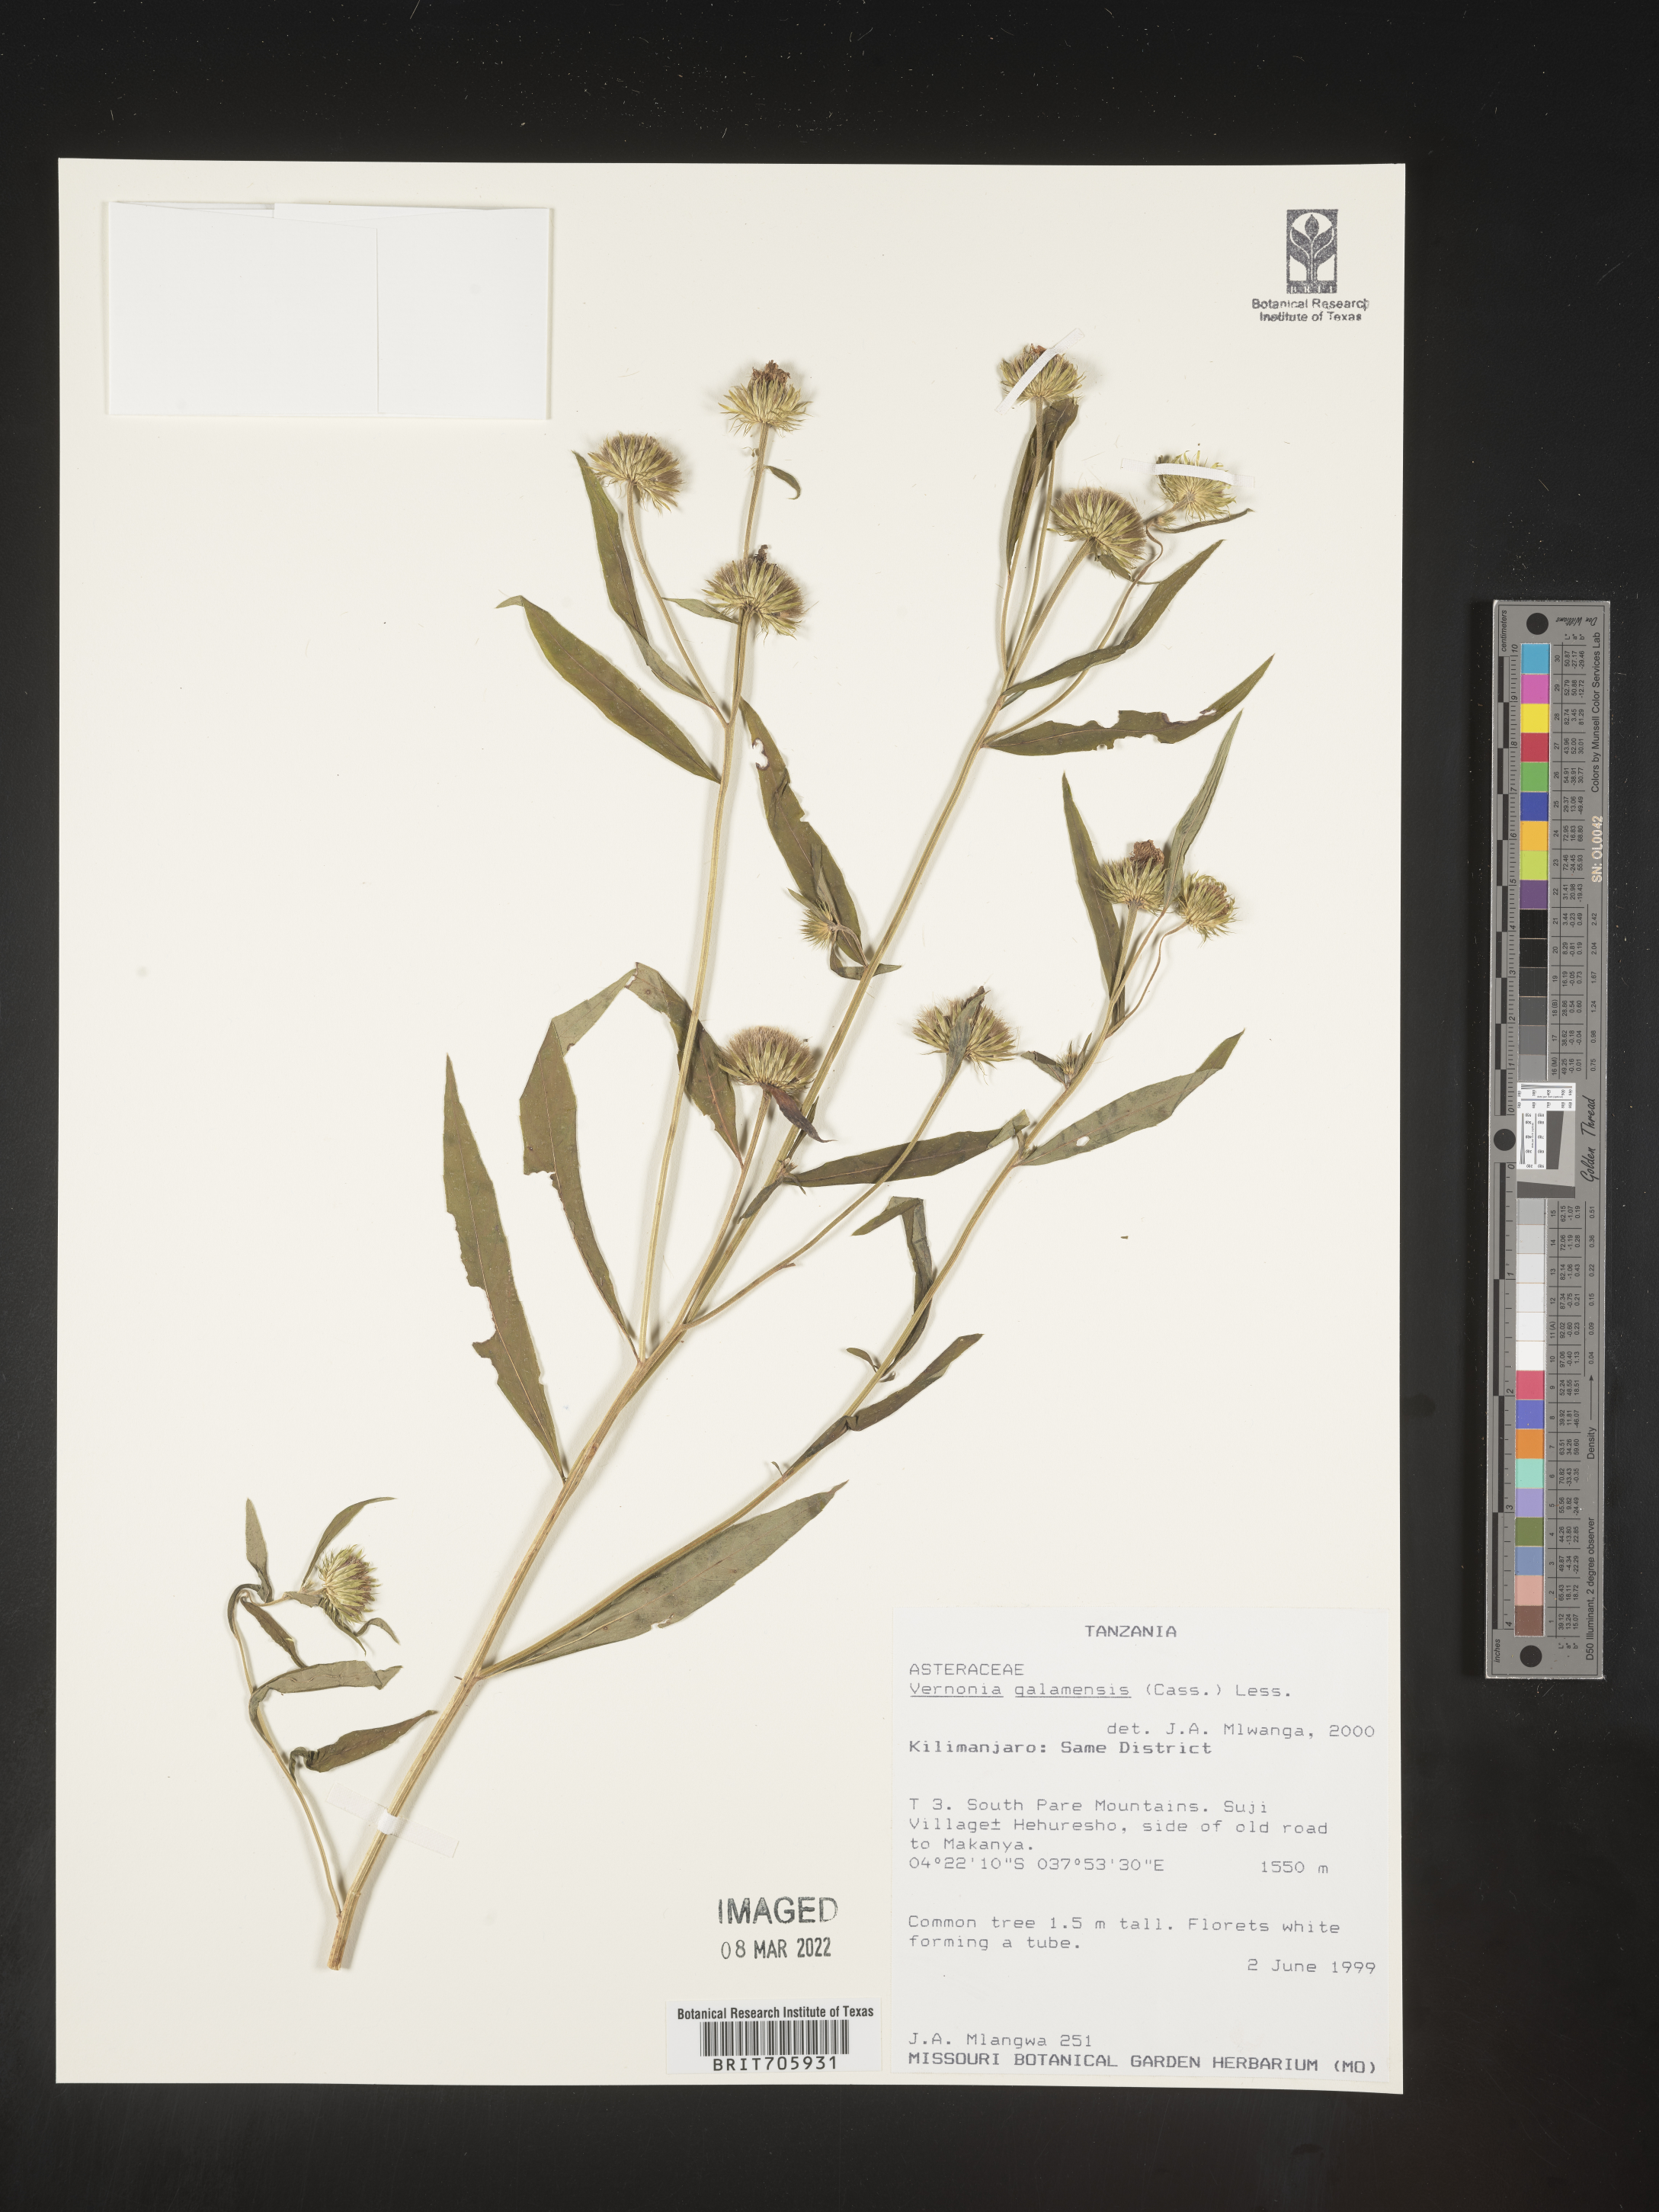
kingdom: Plantae
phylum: Tracheophyta
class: Magnoliopsida
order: Asterales
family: Asteraceae
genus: Vernonia
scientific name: Vernonia
